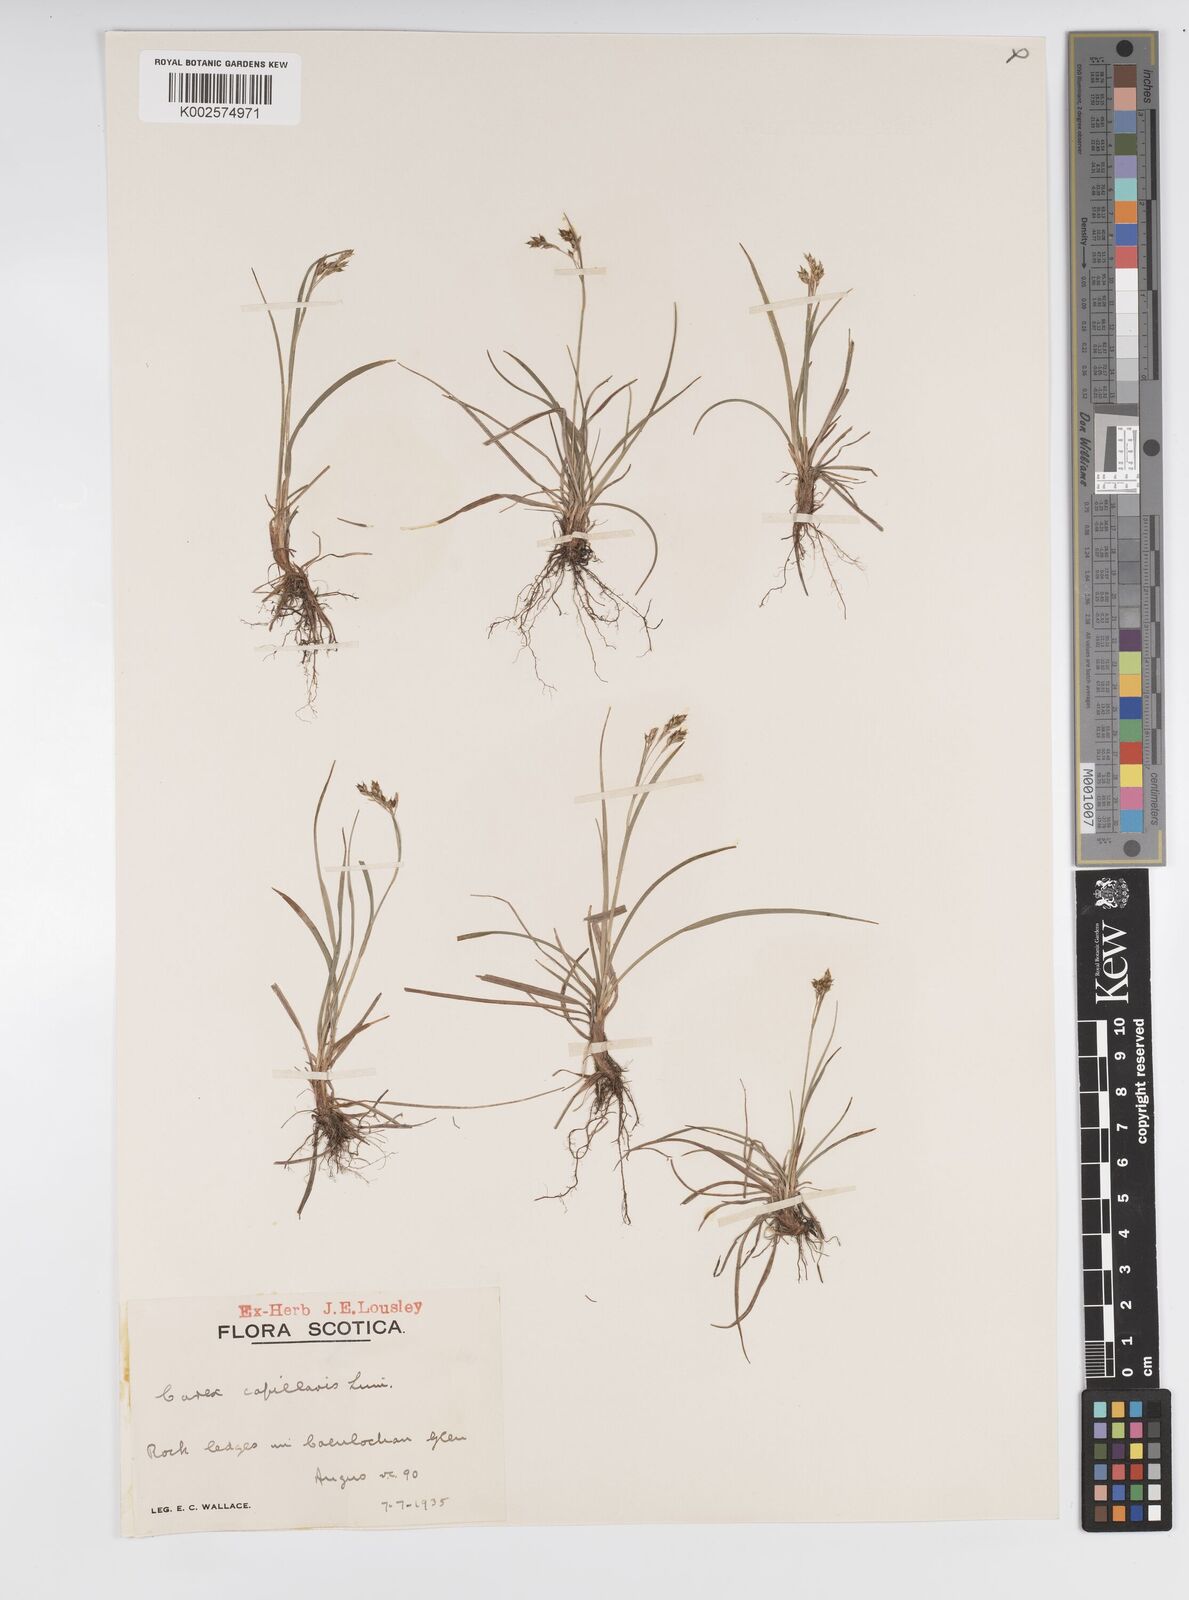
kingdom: Plantae
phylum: Tracheophyta
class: Liliopsida
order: Poales
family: Cyperaceae
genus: Carex
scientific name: Carex capillaris
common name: Hair sedge
